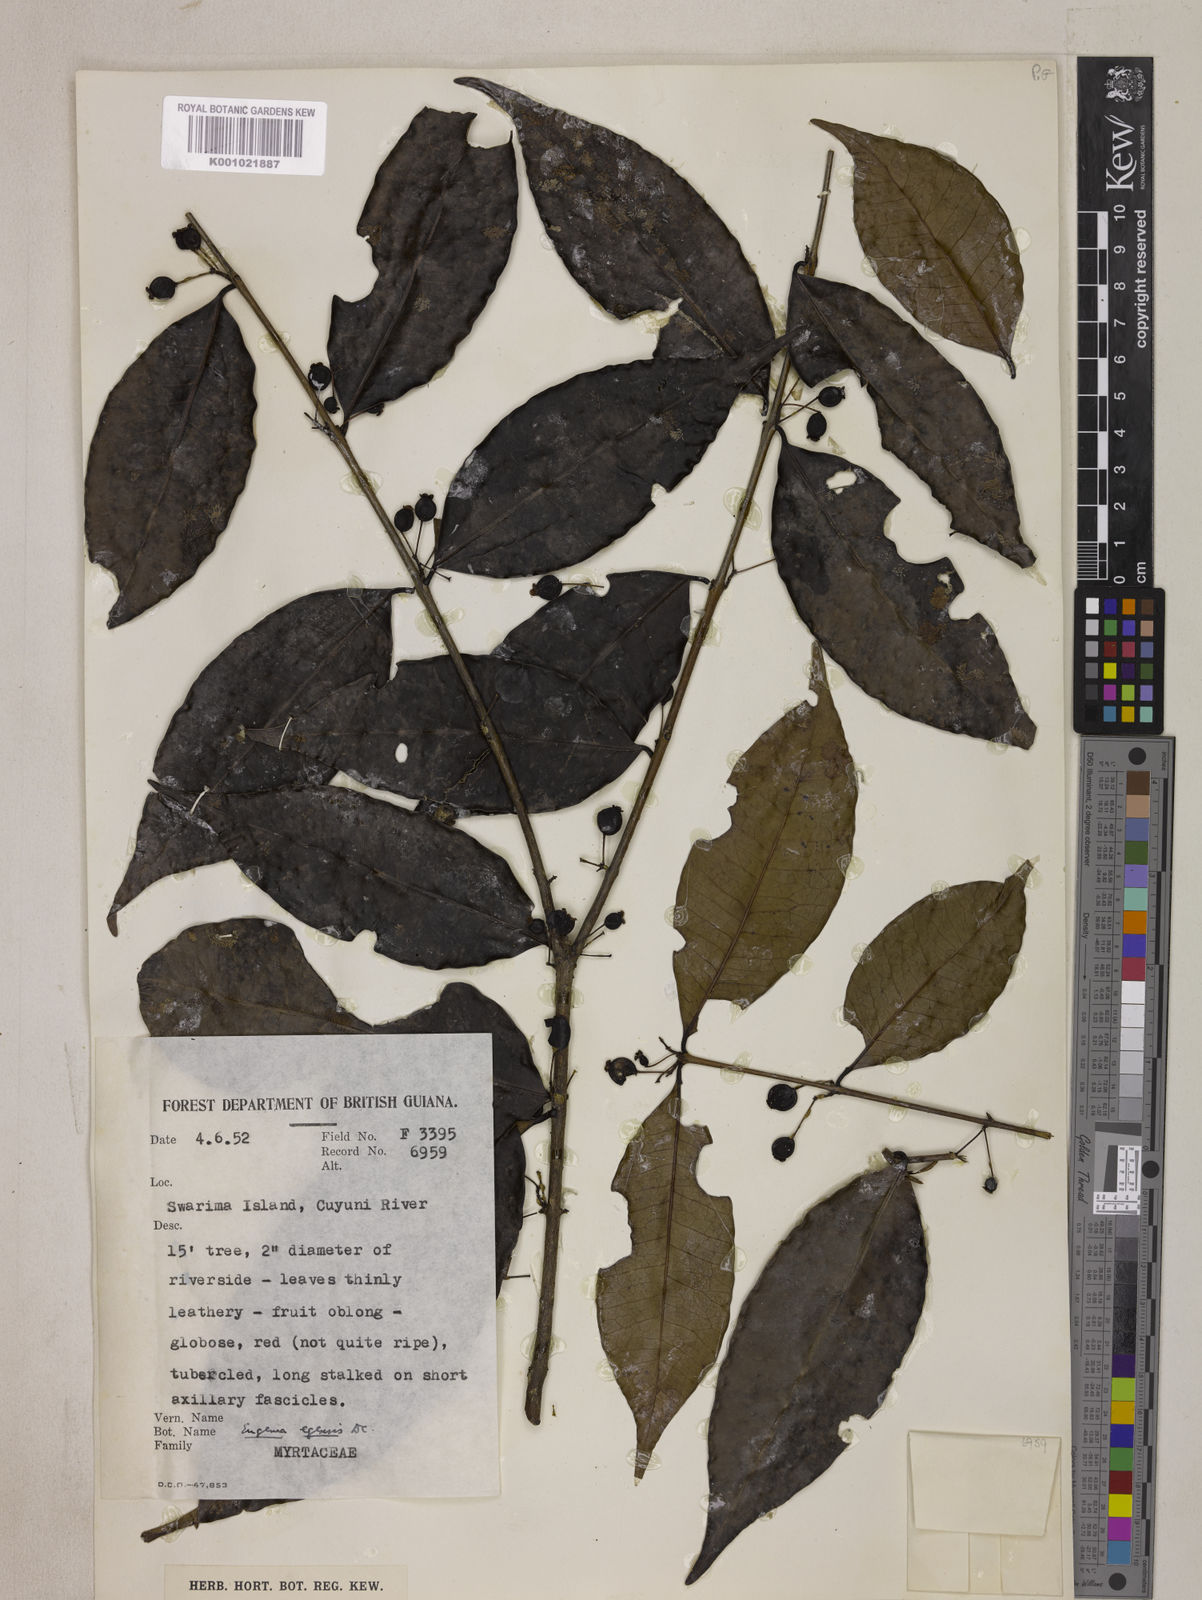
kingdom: Plantae
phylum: Tracheophyta
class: Magnoliopsida
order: Myrtales
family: Myrtaceae
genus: Eugenia
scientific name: Eugenia egensis
